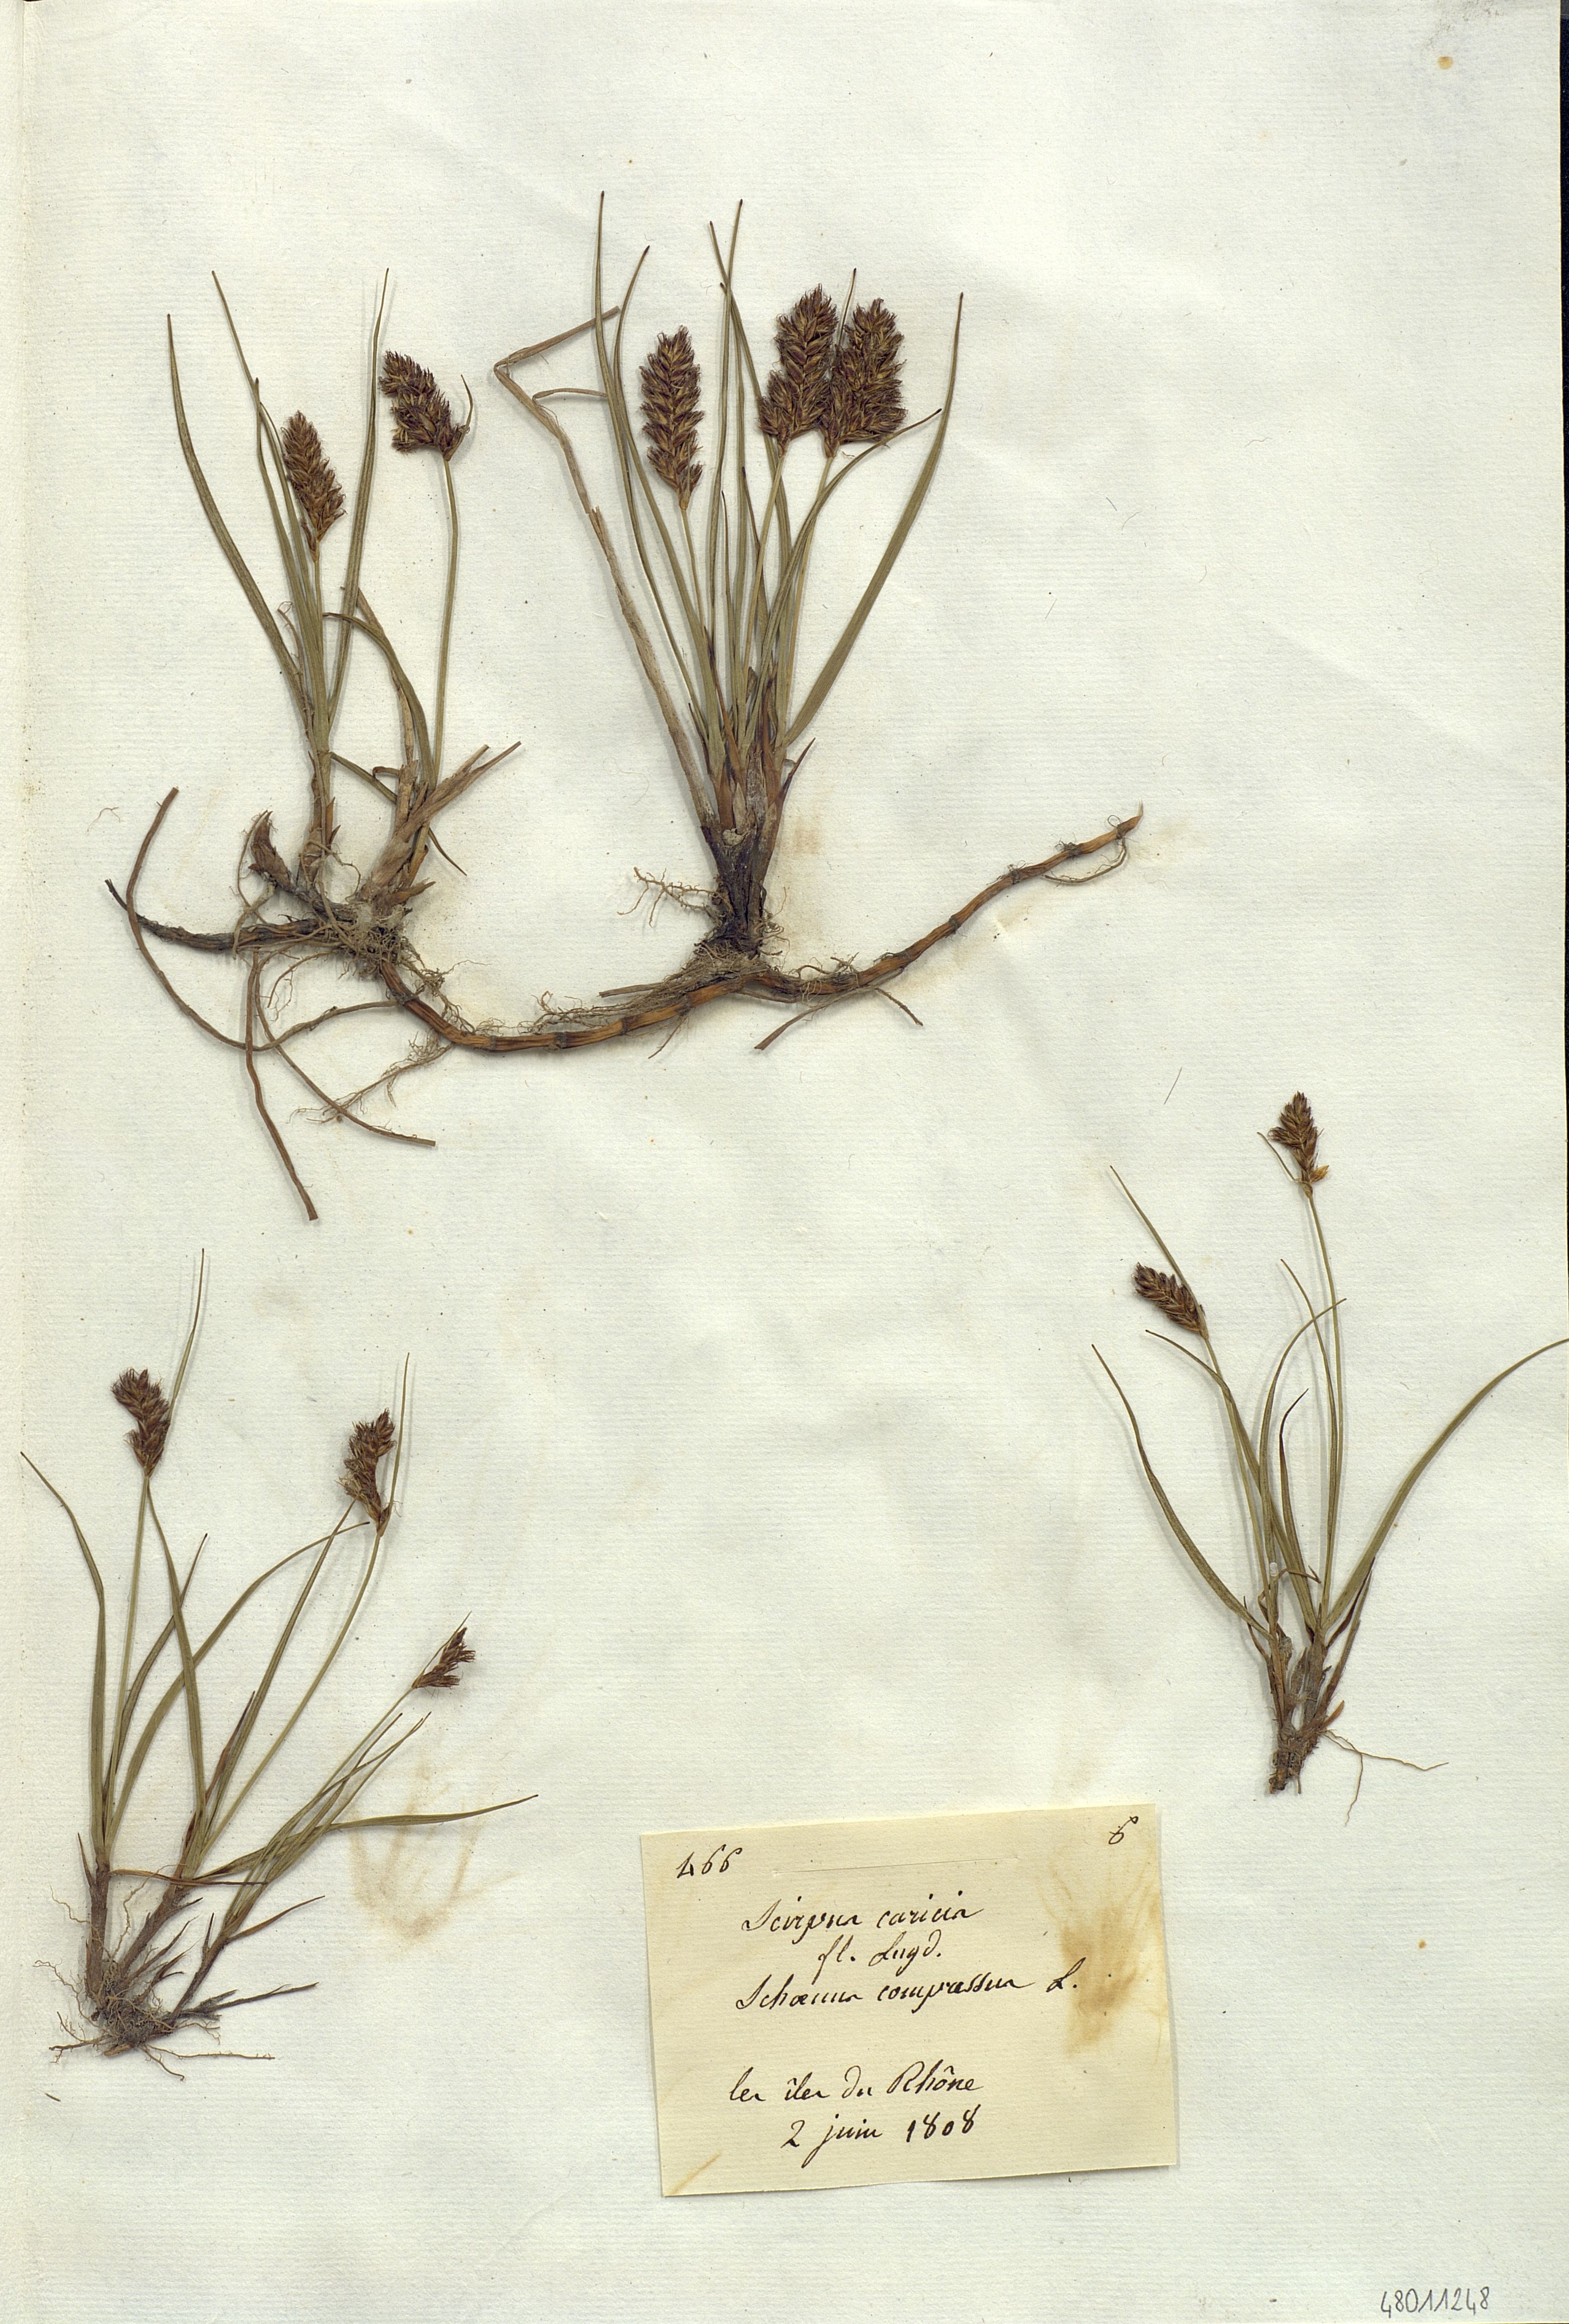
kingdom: Plantae
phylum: Tracheophyta
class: Liliopsida
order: Poales
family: Cyperaceae
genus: Blysmus
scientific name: Blysmus compressus
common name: Flat-sedge
